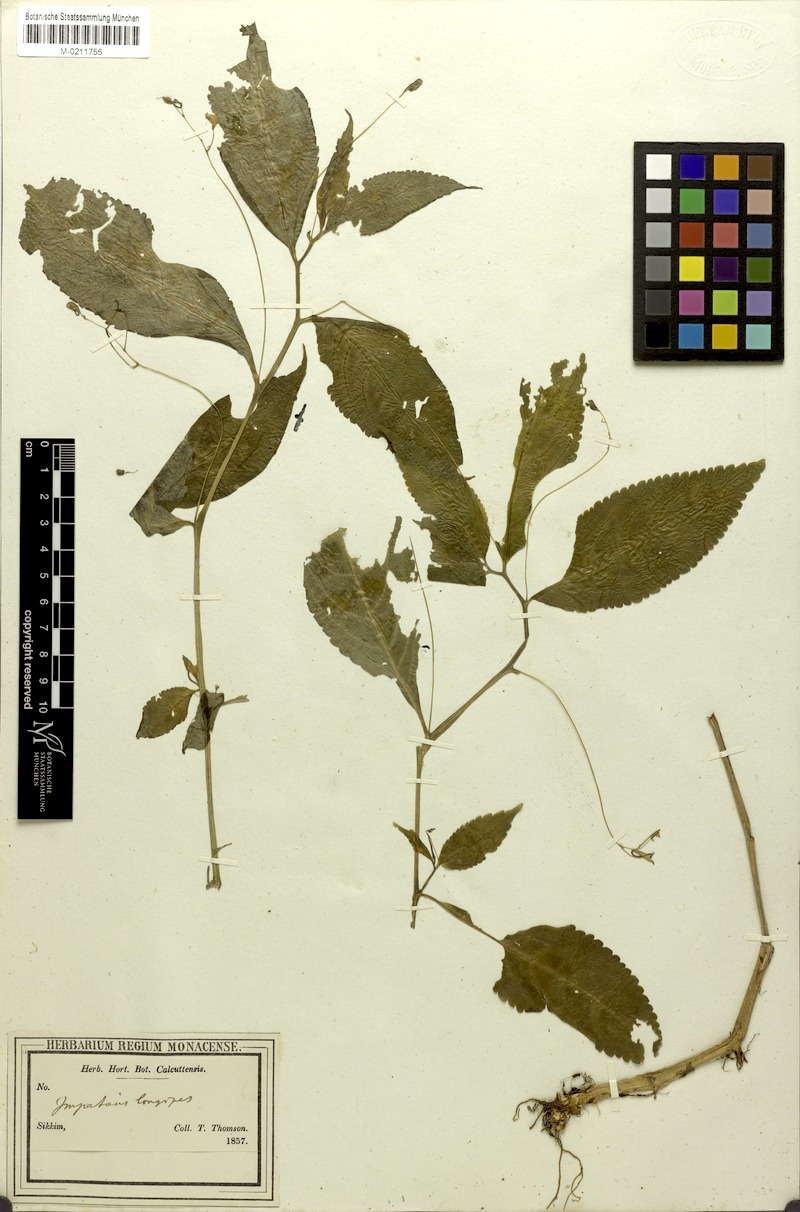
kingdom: Plantae
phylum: Tracheophyta
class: Magnoliopsida
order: Ericales
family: Balsaminaceae
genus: Impatiens
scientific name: Impatiens longipes
